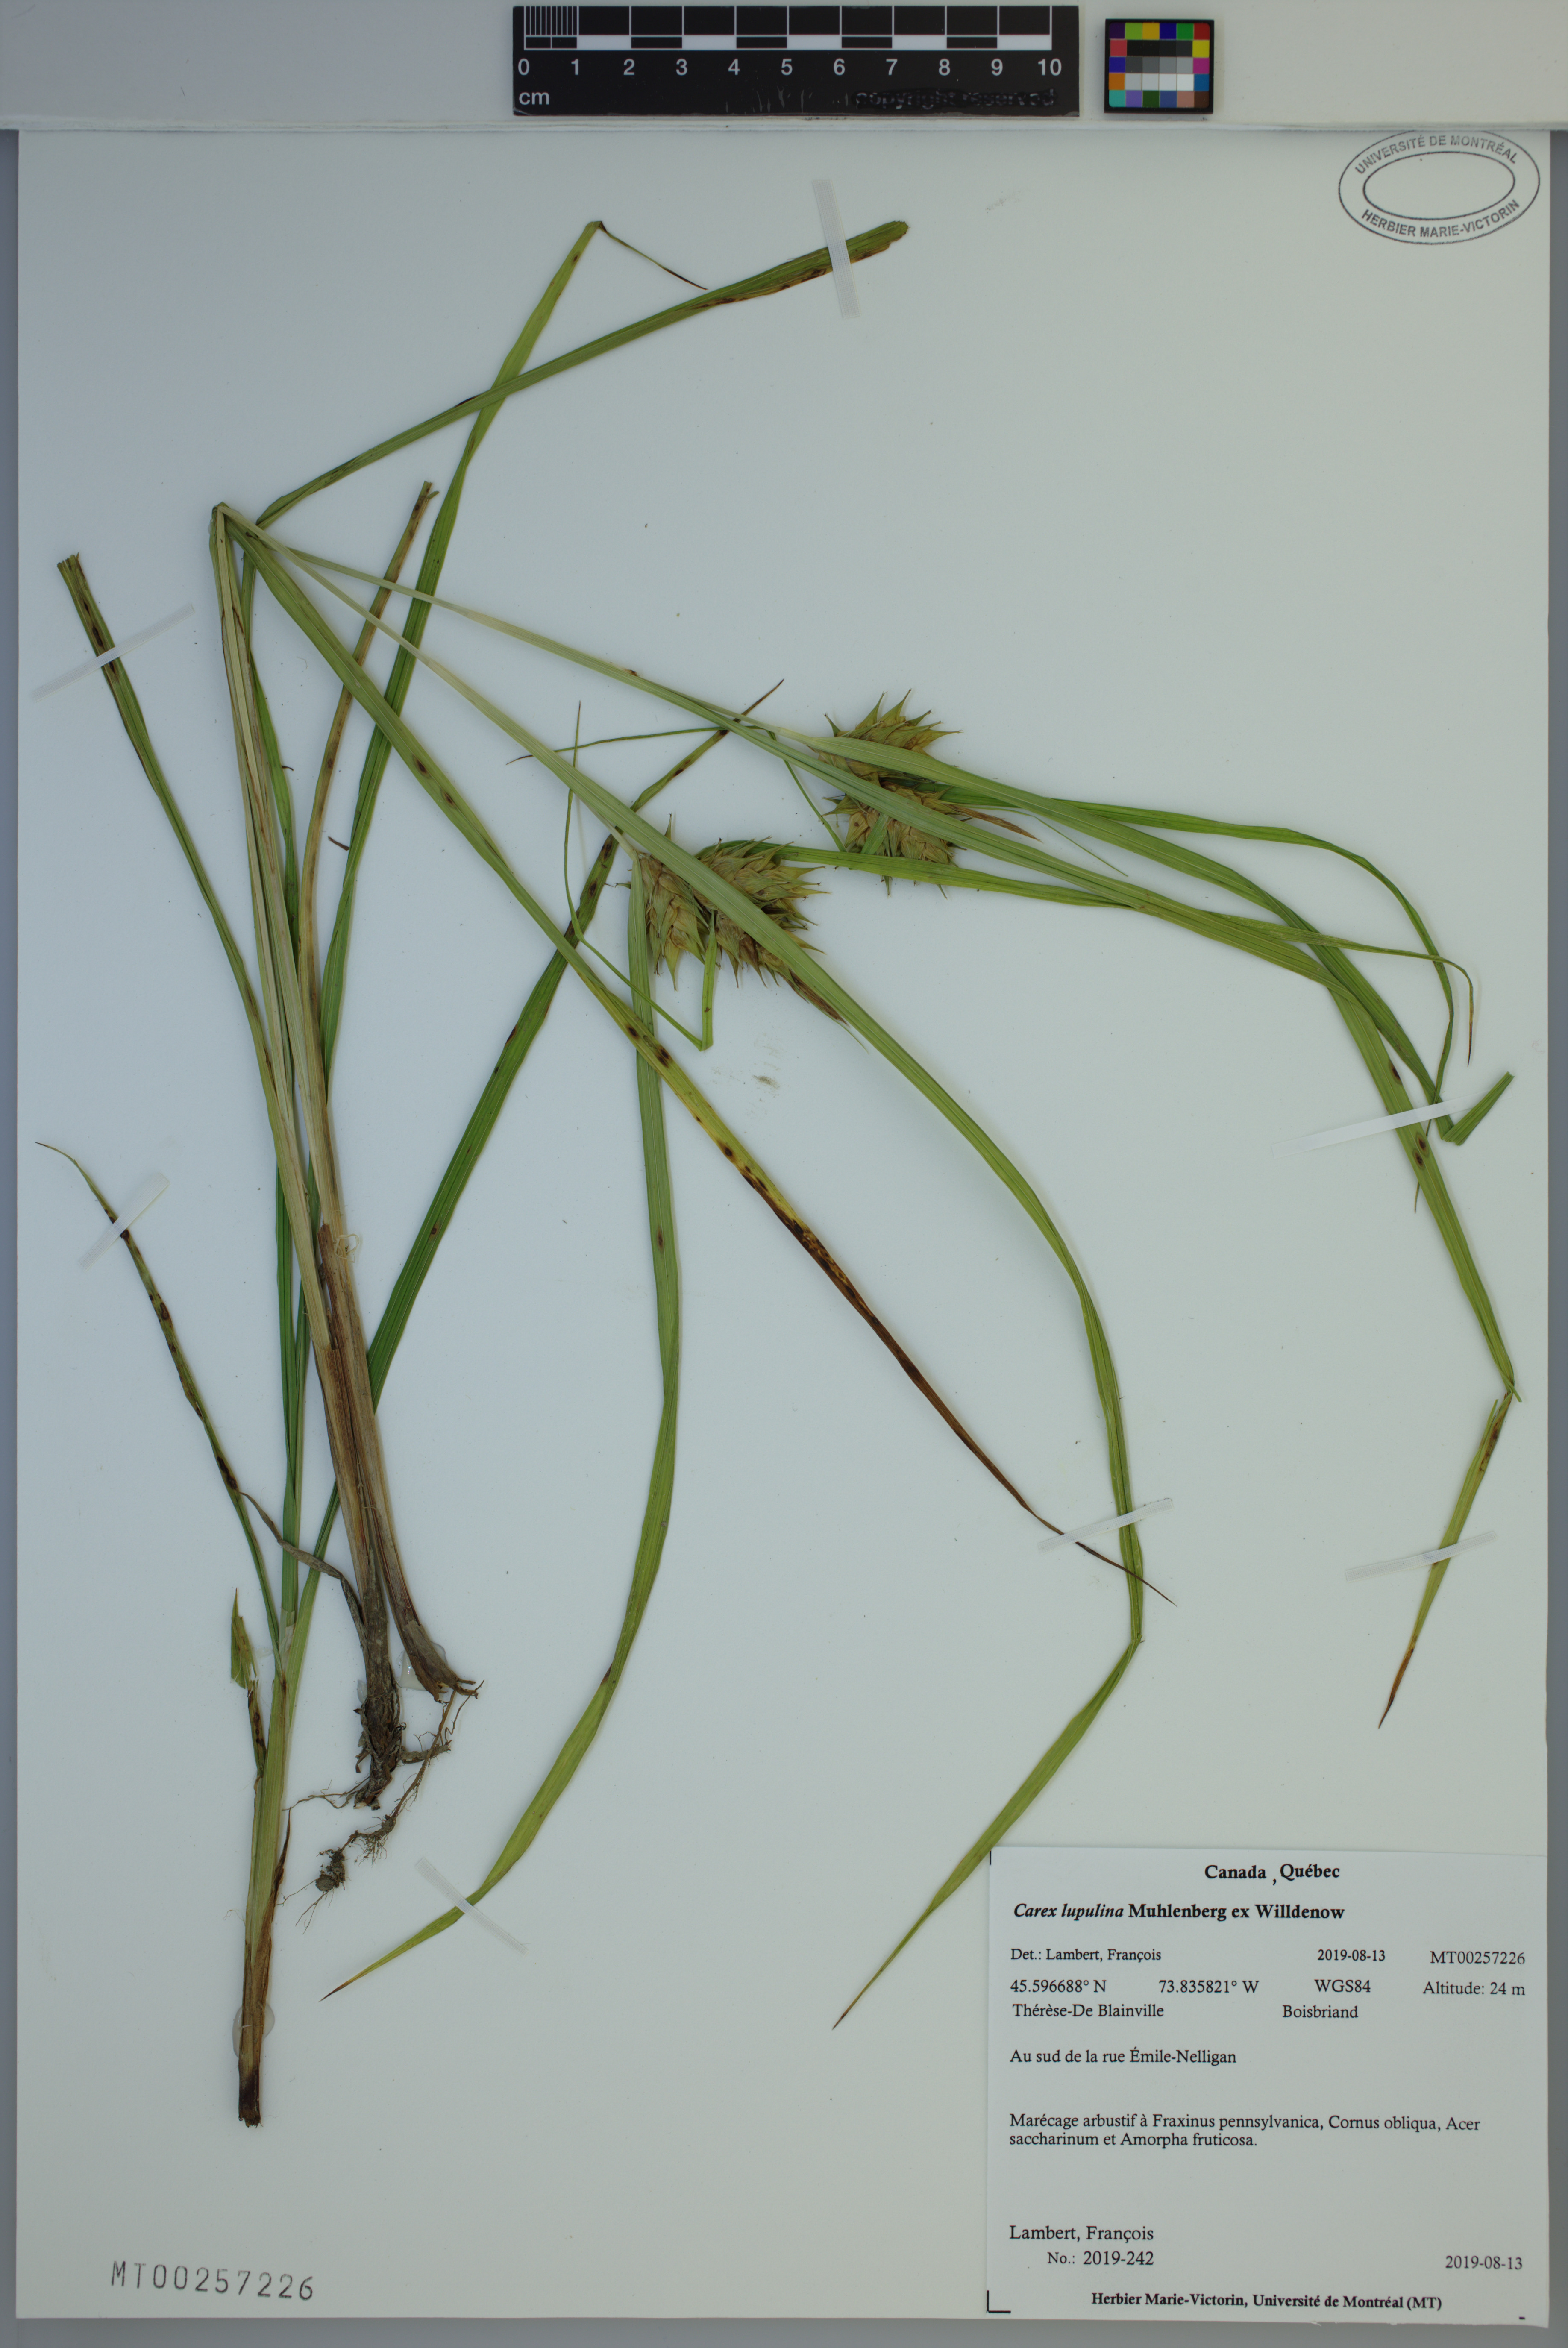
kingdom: Plantae
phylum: Tracheophyta
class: Liliopsida
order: Poales
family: Cyperaceae
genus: Carex
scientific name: Carex lupulina
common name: Hop sedge
